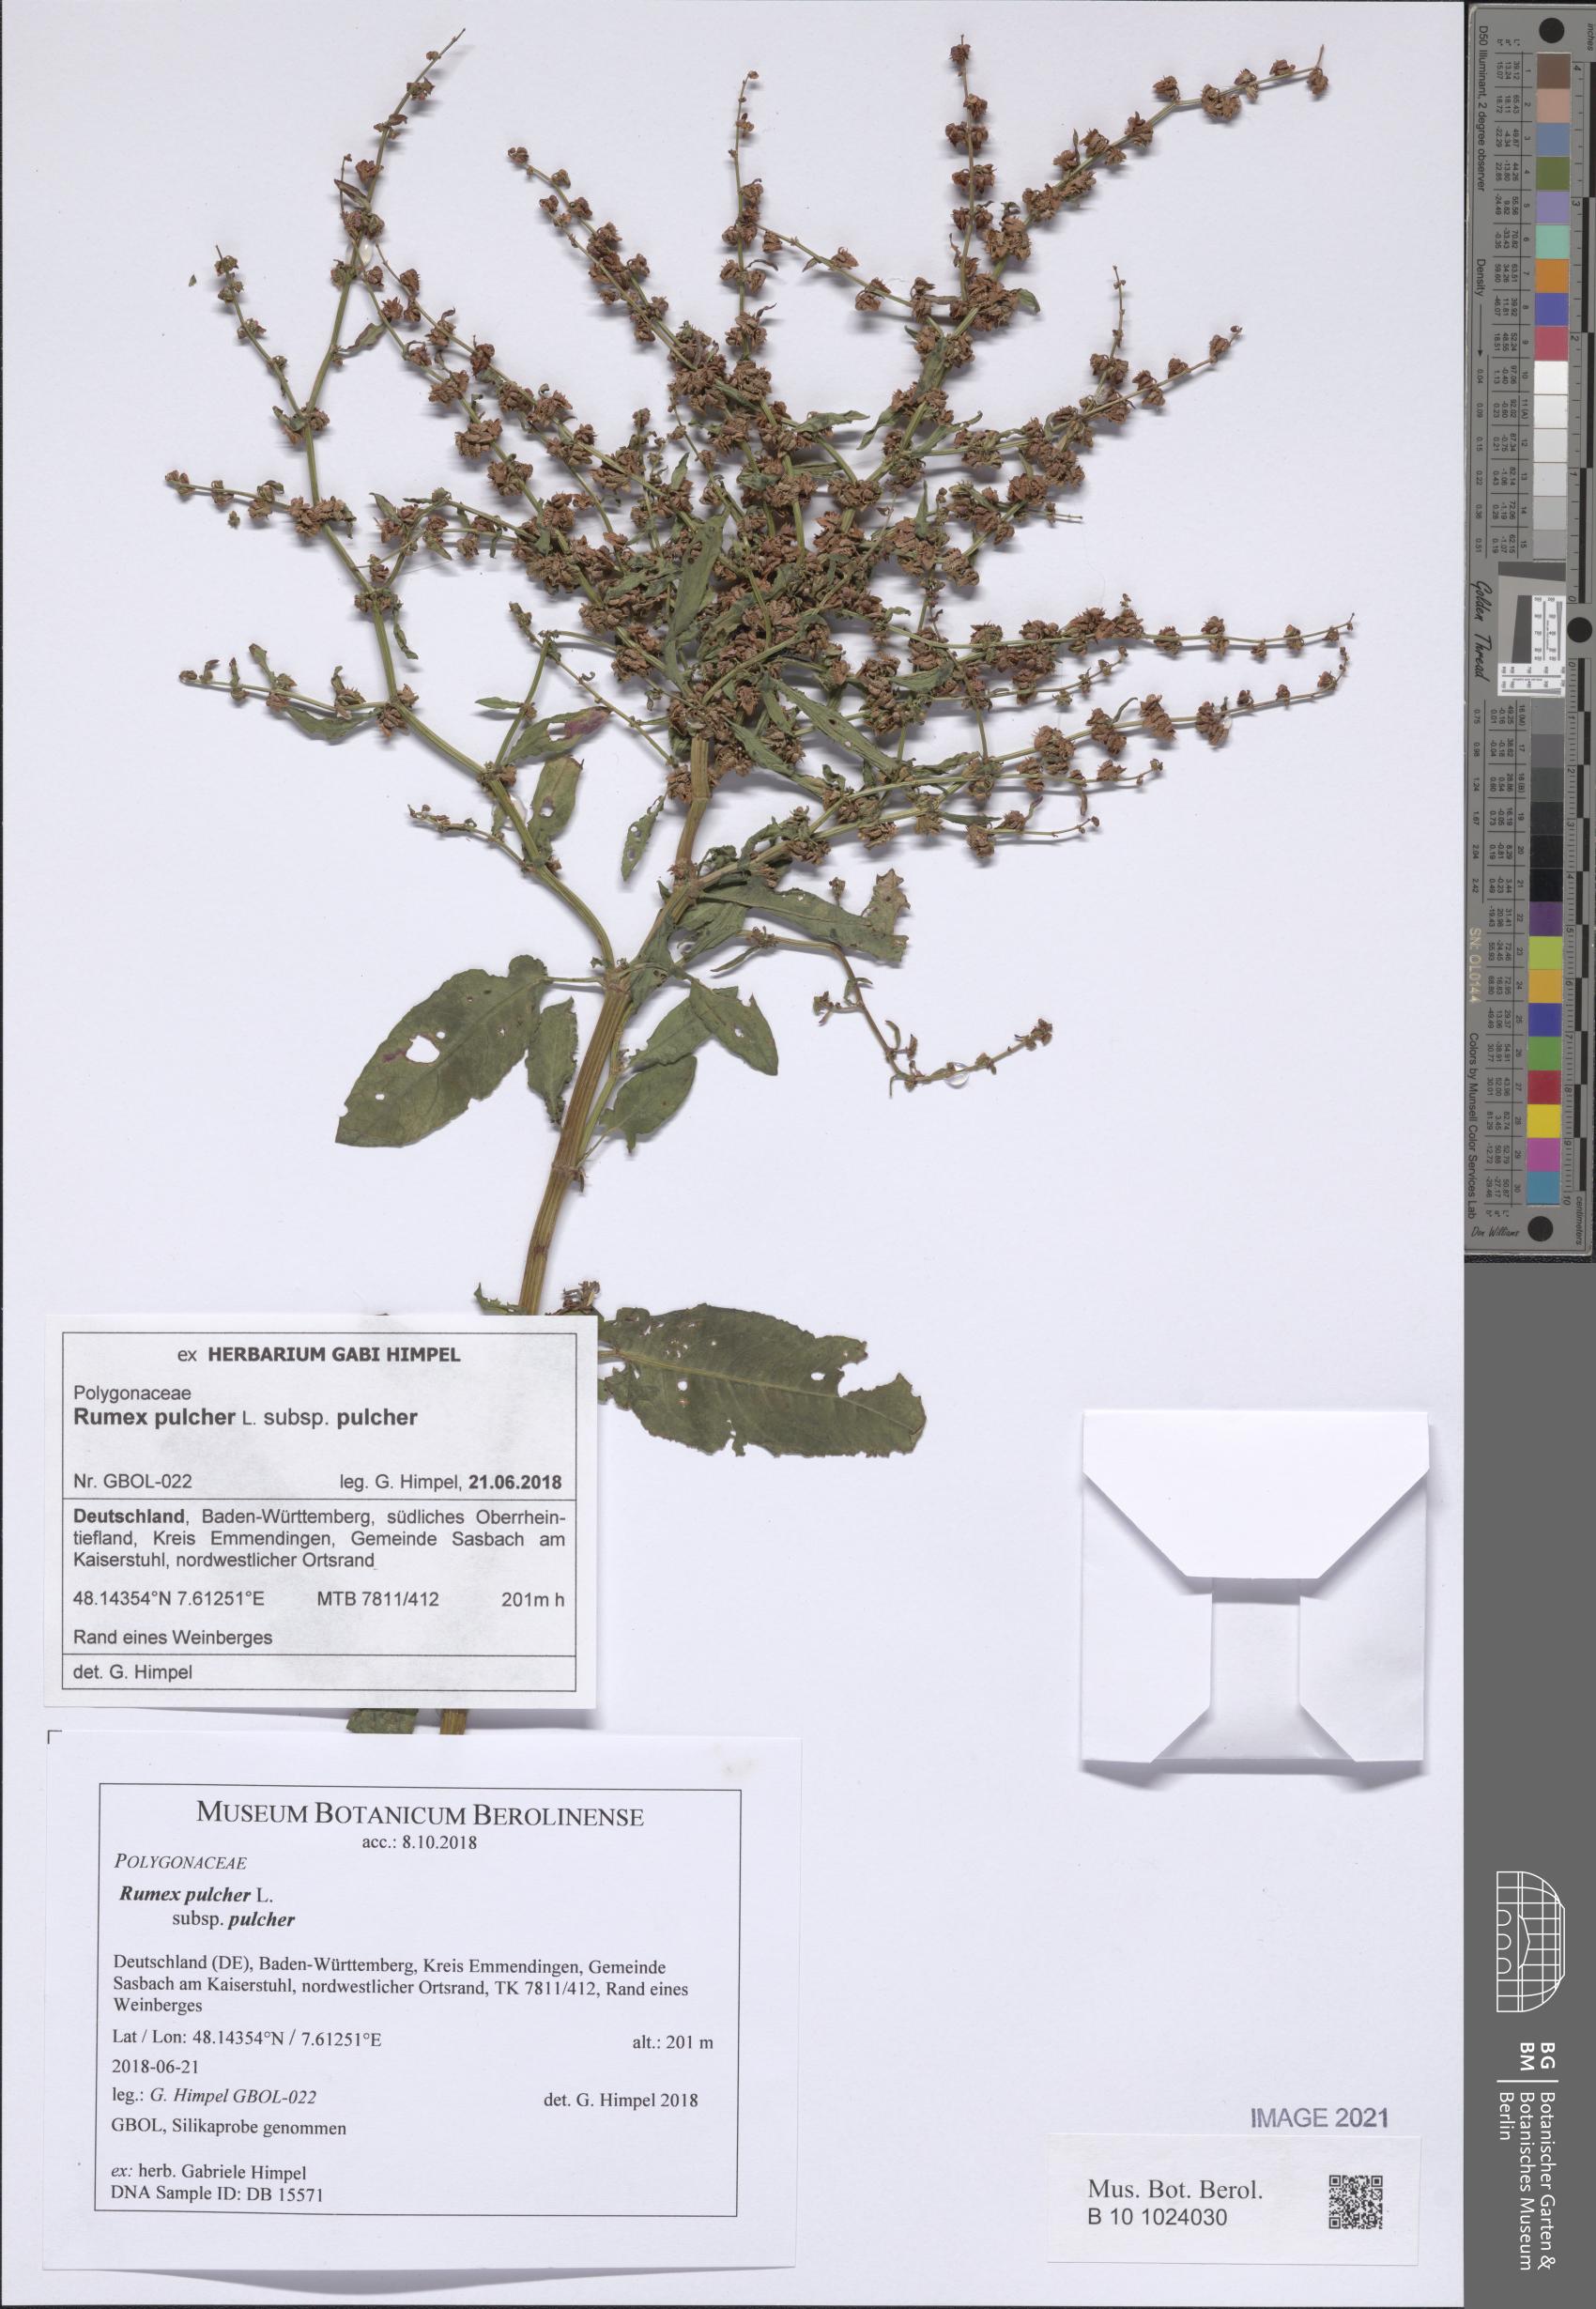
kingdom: Plantae
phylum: Tracheophyta
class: Magnoliopsida
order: Caryophyllales
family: Polygonaceae
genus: Rumex
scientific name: Rumex pulcher
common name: Fiddle dock
